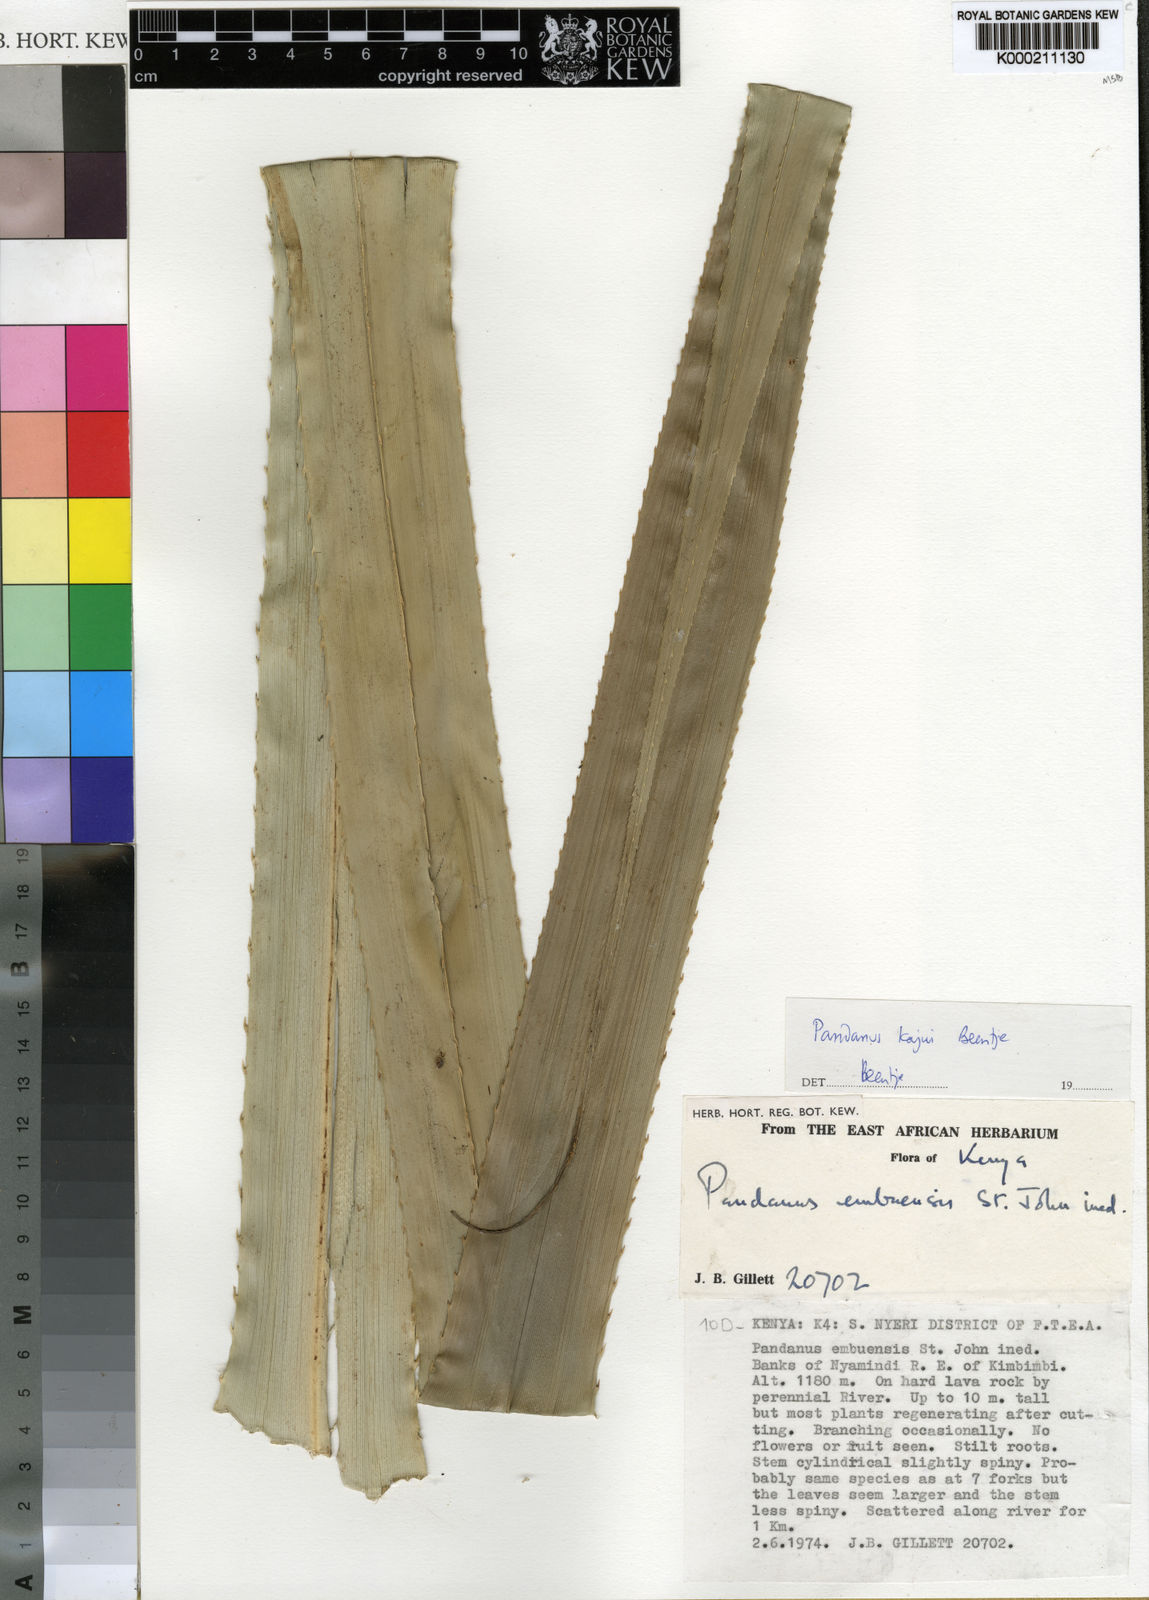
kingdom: Plantae
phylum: Tracheophyta
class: Liliopsida
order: Pandanales
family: Pandanaceae
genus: Pandanus
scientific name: Pandanus kajui
